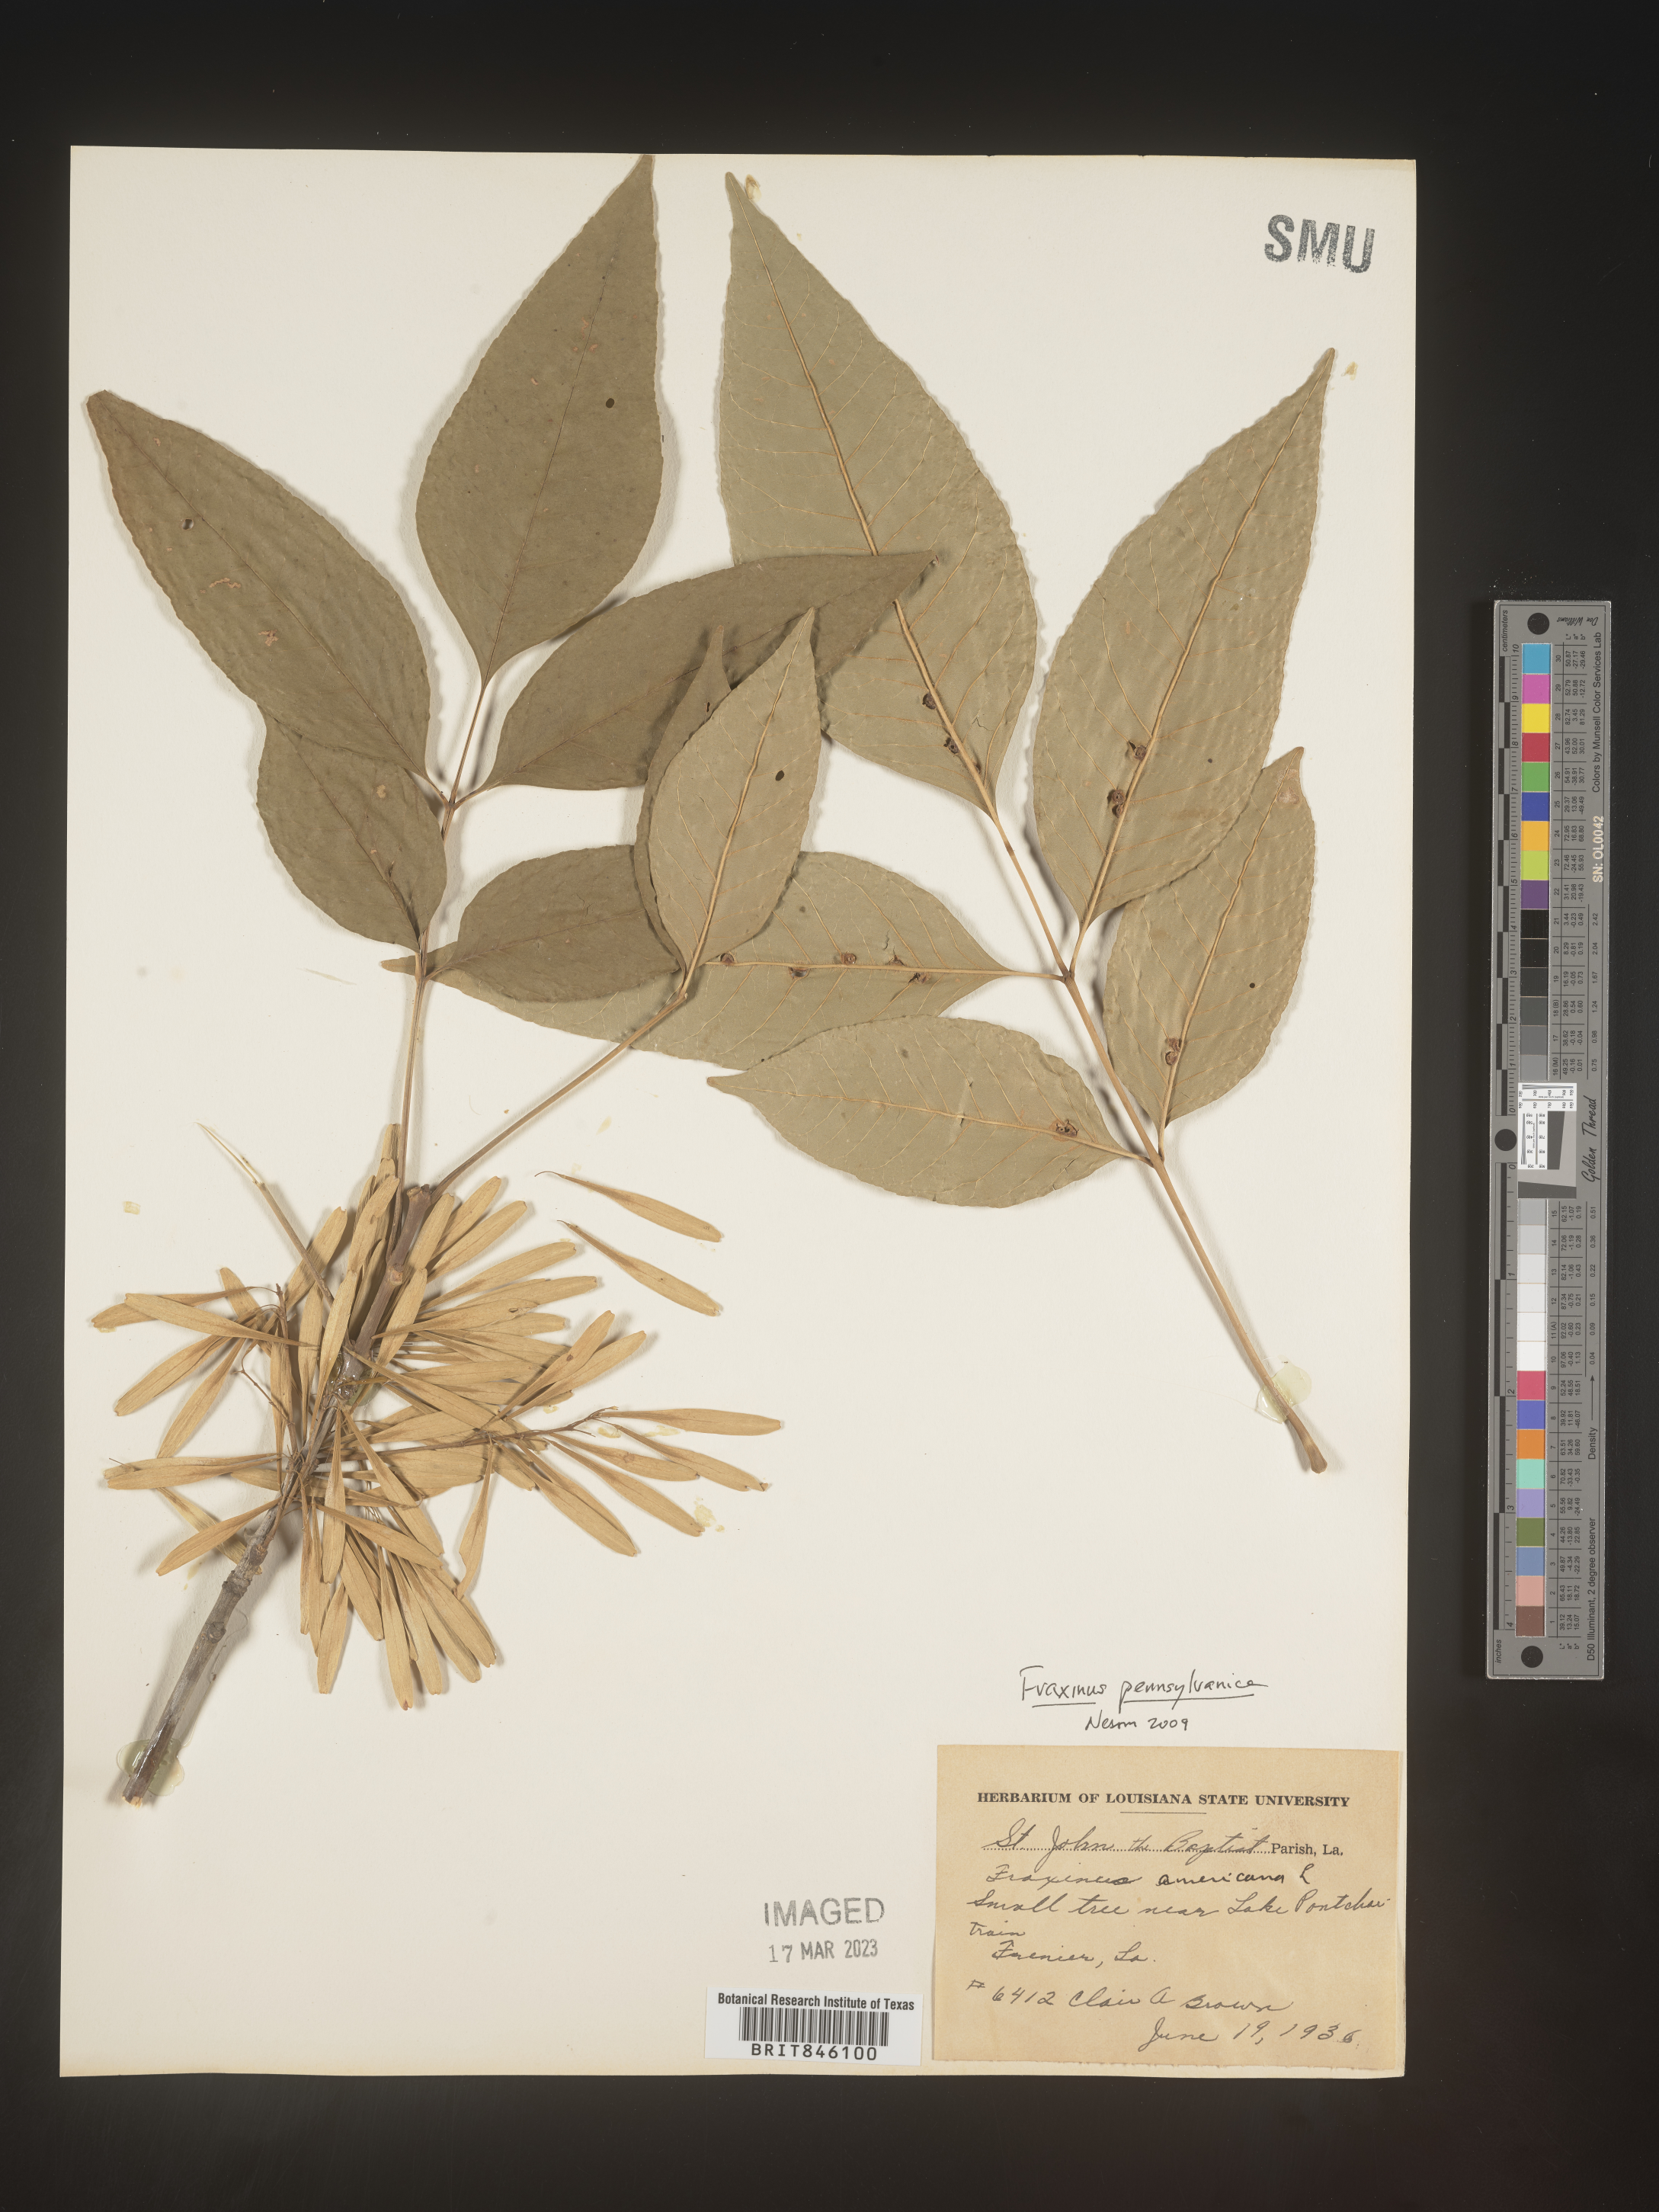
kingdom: Plantae
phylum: Tracheophyta
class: Magnoliopsida
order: Lamiales
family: Oleaceae
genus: Fraxinus
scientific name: Fraxinus pennsylvanica
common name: Green ash
